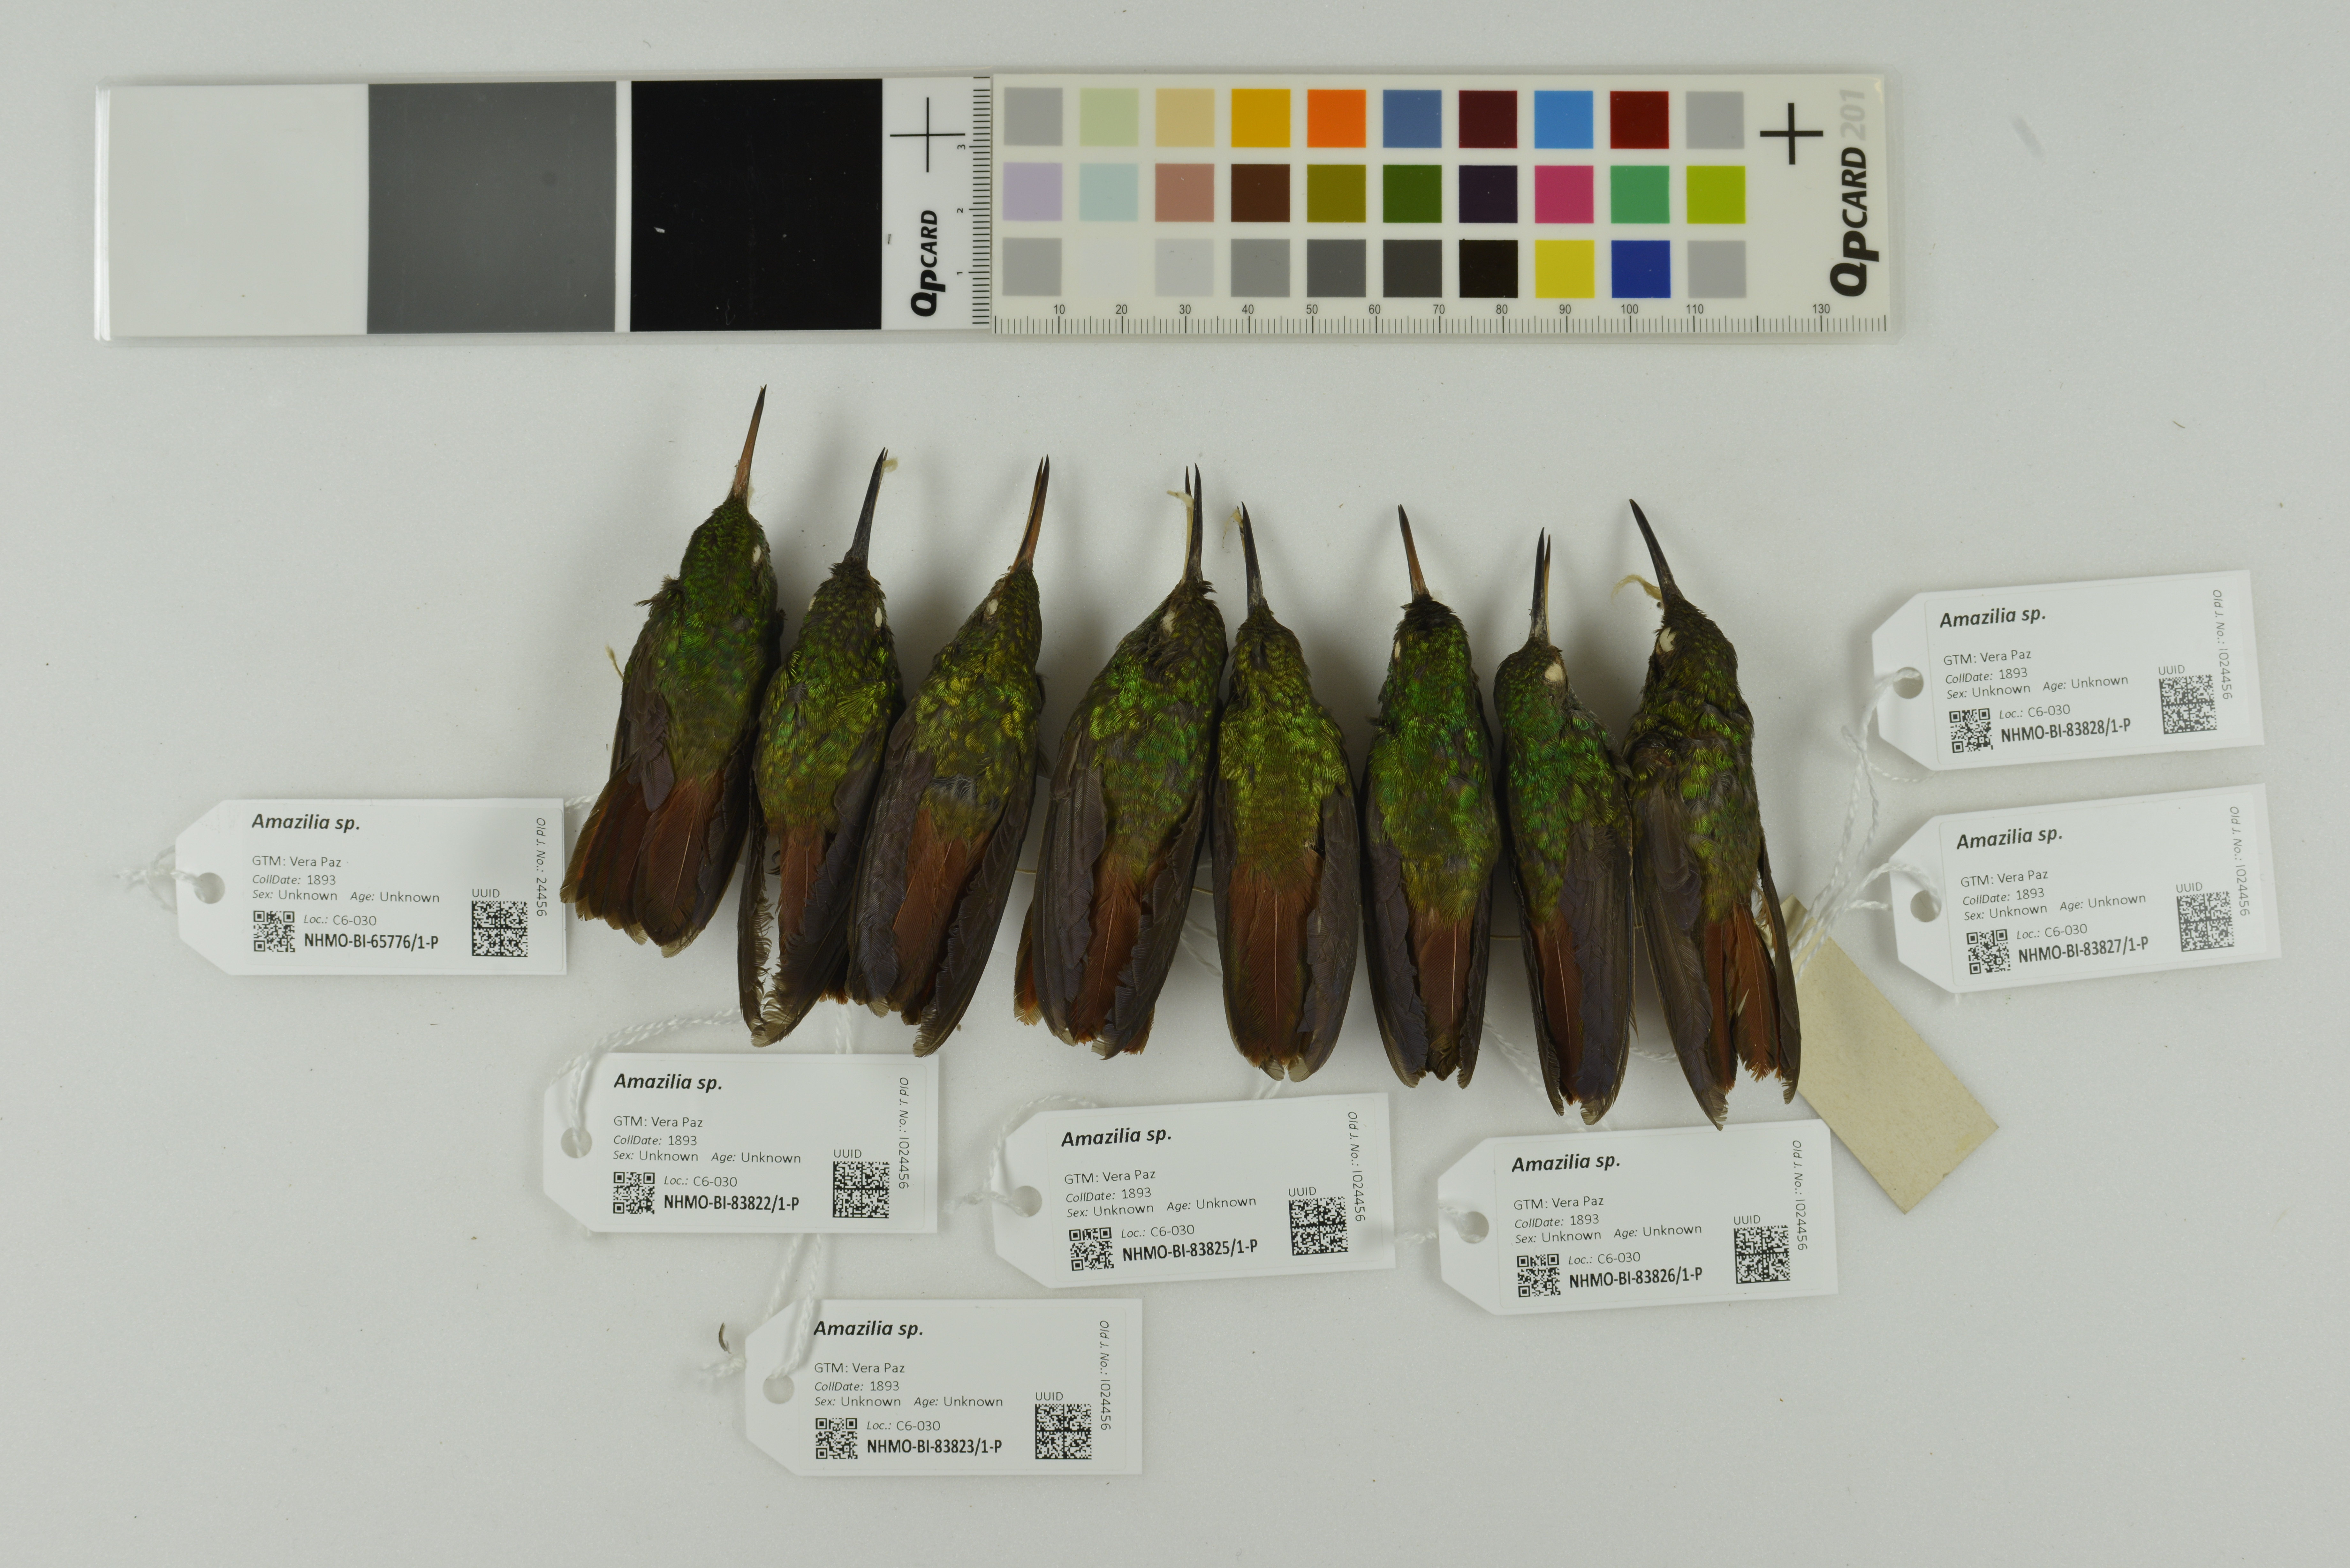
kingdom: Animalia
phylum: Chordata
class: Aves
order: Apodiformes
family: Trochilidae
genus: Amazilia
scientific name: Amazilia
